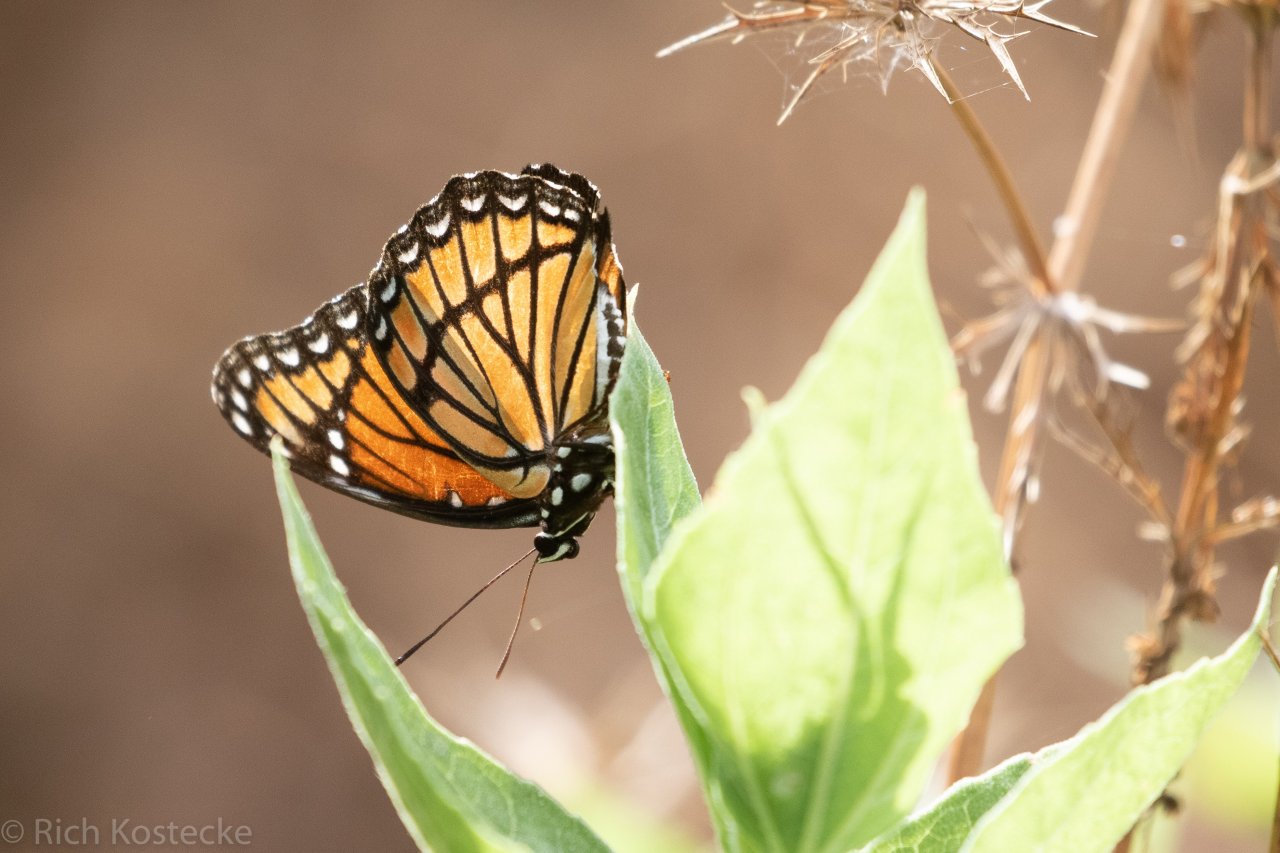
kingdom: Animalia
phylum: Arthropoda
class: Insecta
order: Lepidoptera
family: Nymphalidae
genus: Limenitis
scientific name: Limenitis archippus
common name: Viceroy
